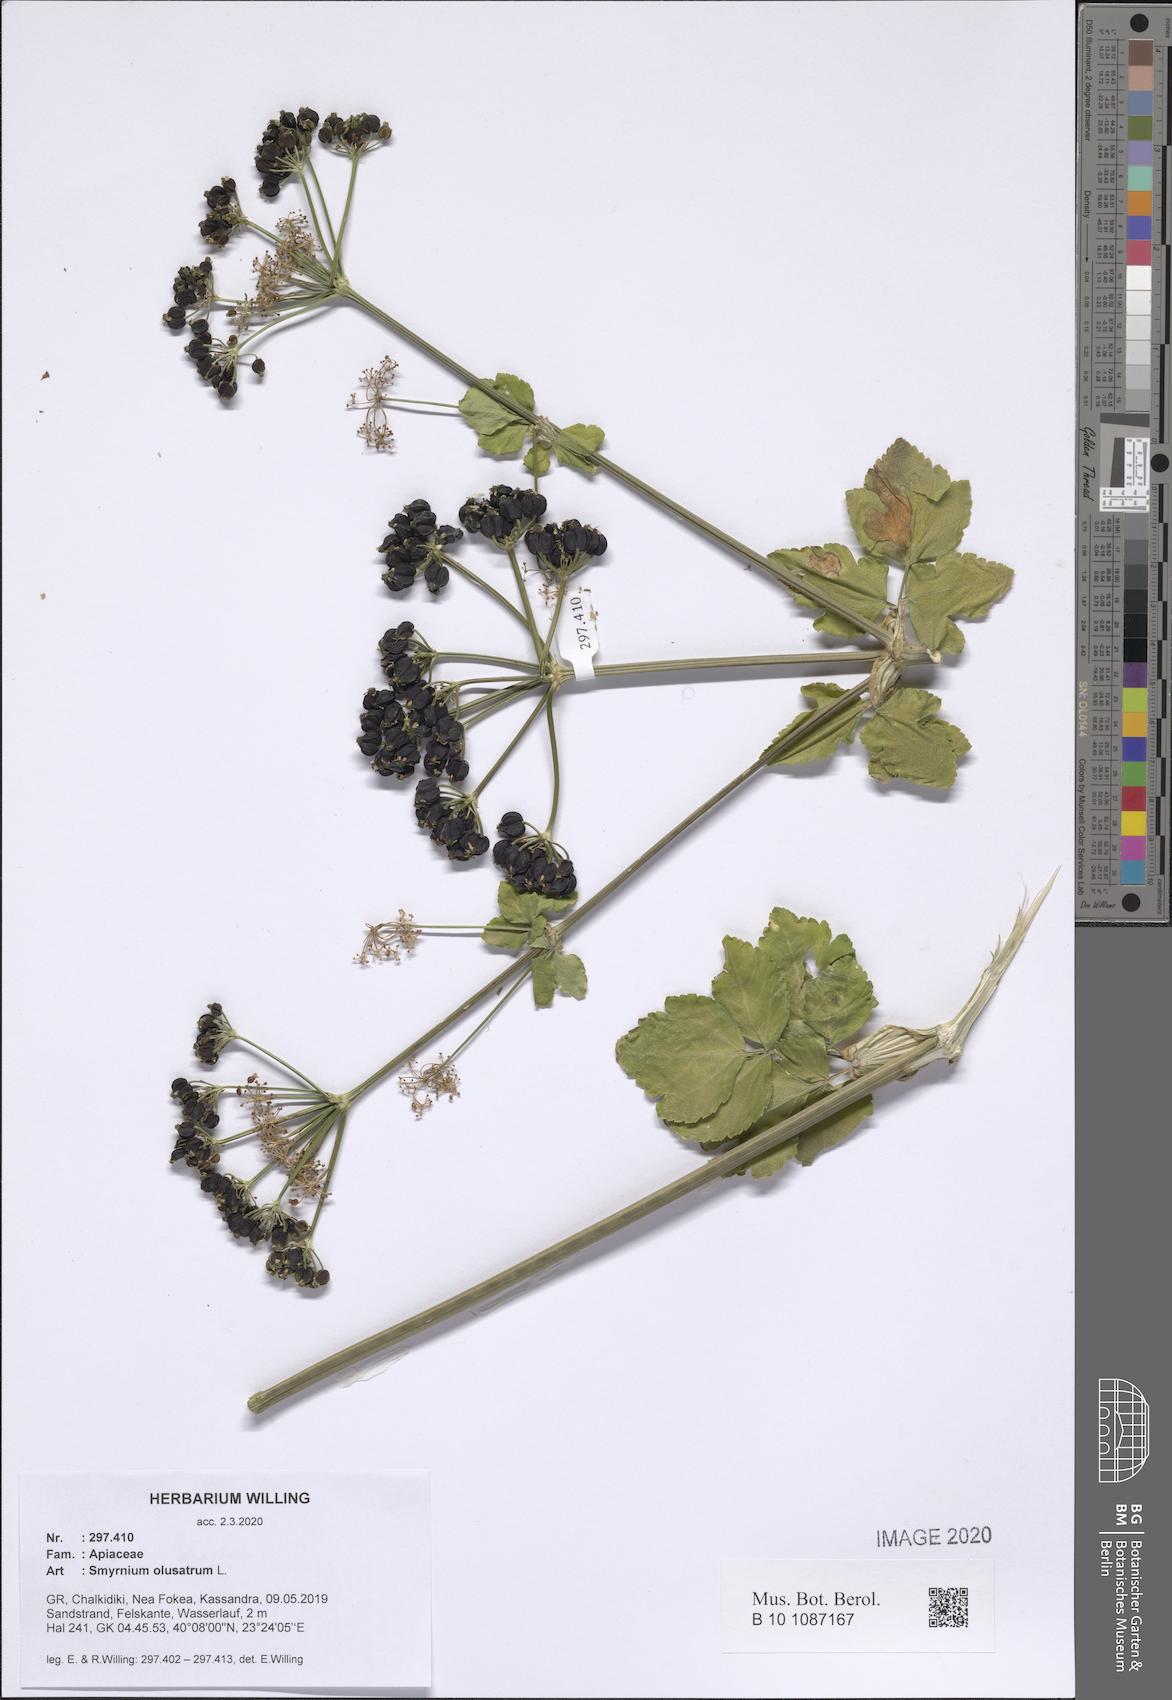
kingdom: Plantae
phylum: Tracheophyta
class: Magnoliopsida
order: Apiales
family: Apiaceae
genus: Smyrnium
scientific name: Smyrnium olusatrum
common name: Alexanders
